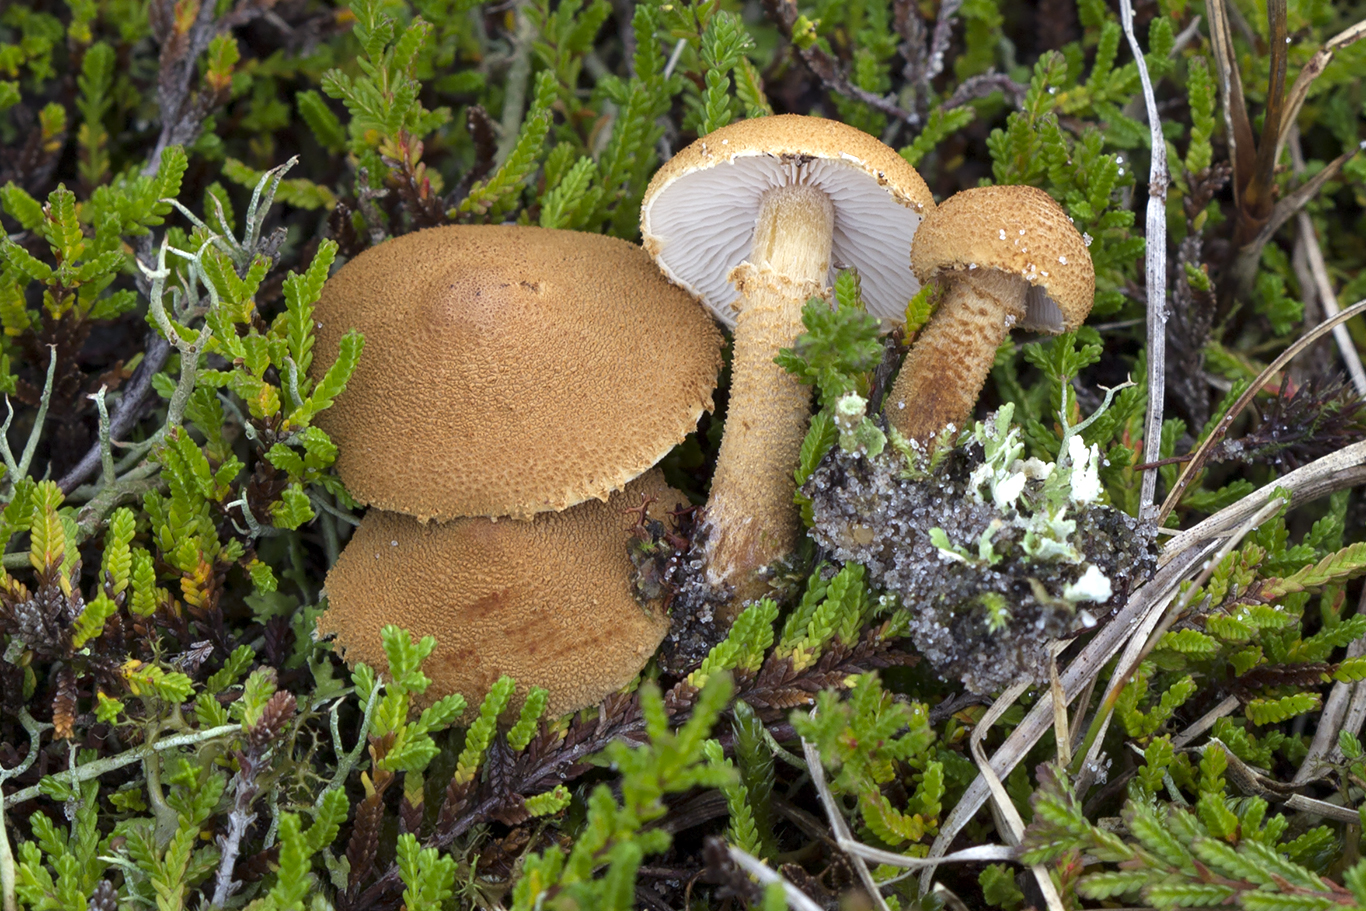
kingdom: Fungi
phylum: Basidiomycota
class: Agaricomycetes
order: Agaricales
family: Tricholomataceae
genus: Cystoderma
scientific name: Cystoderma amianthinum
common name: okkergul grynhat
